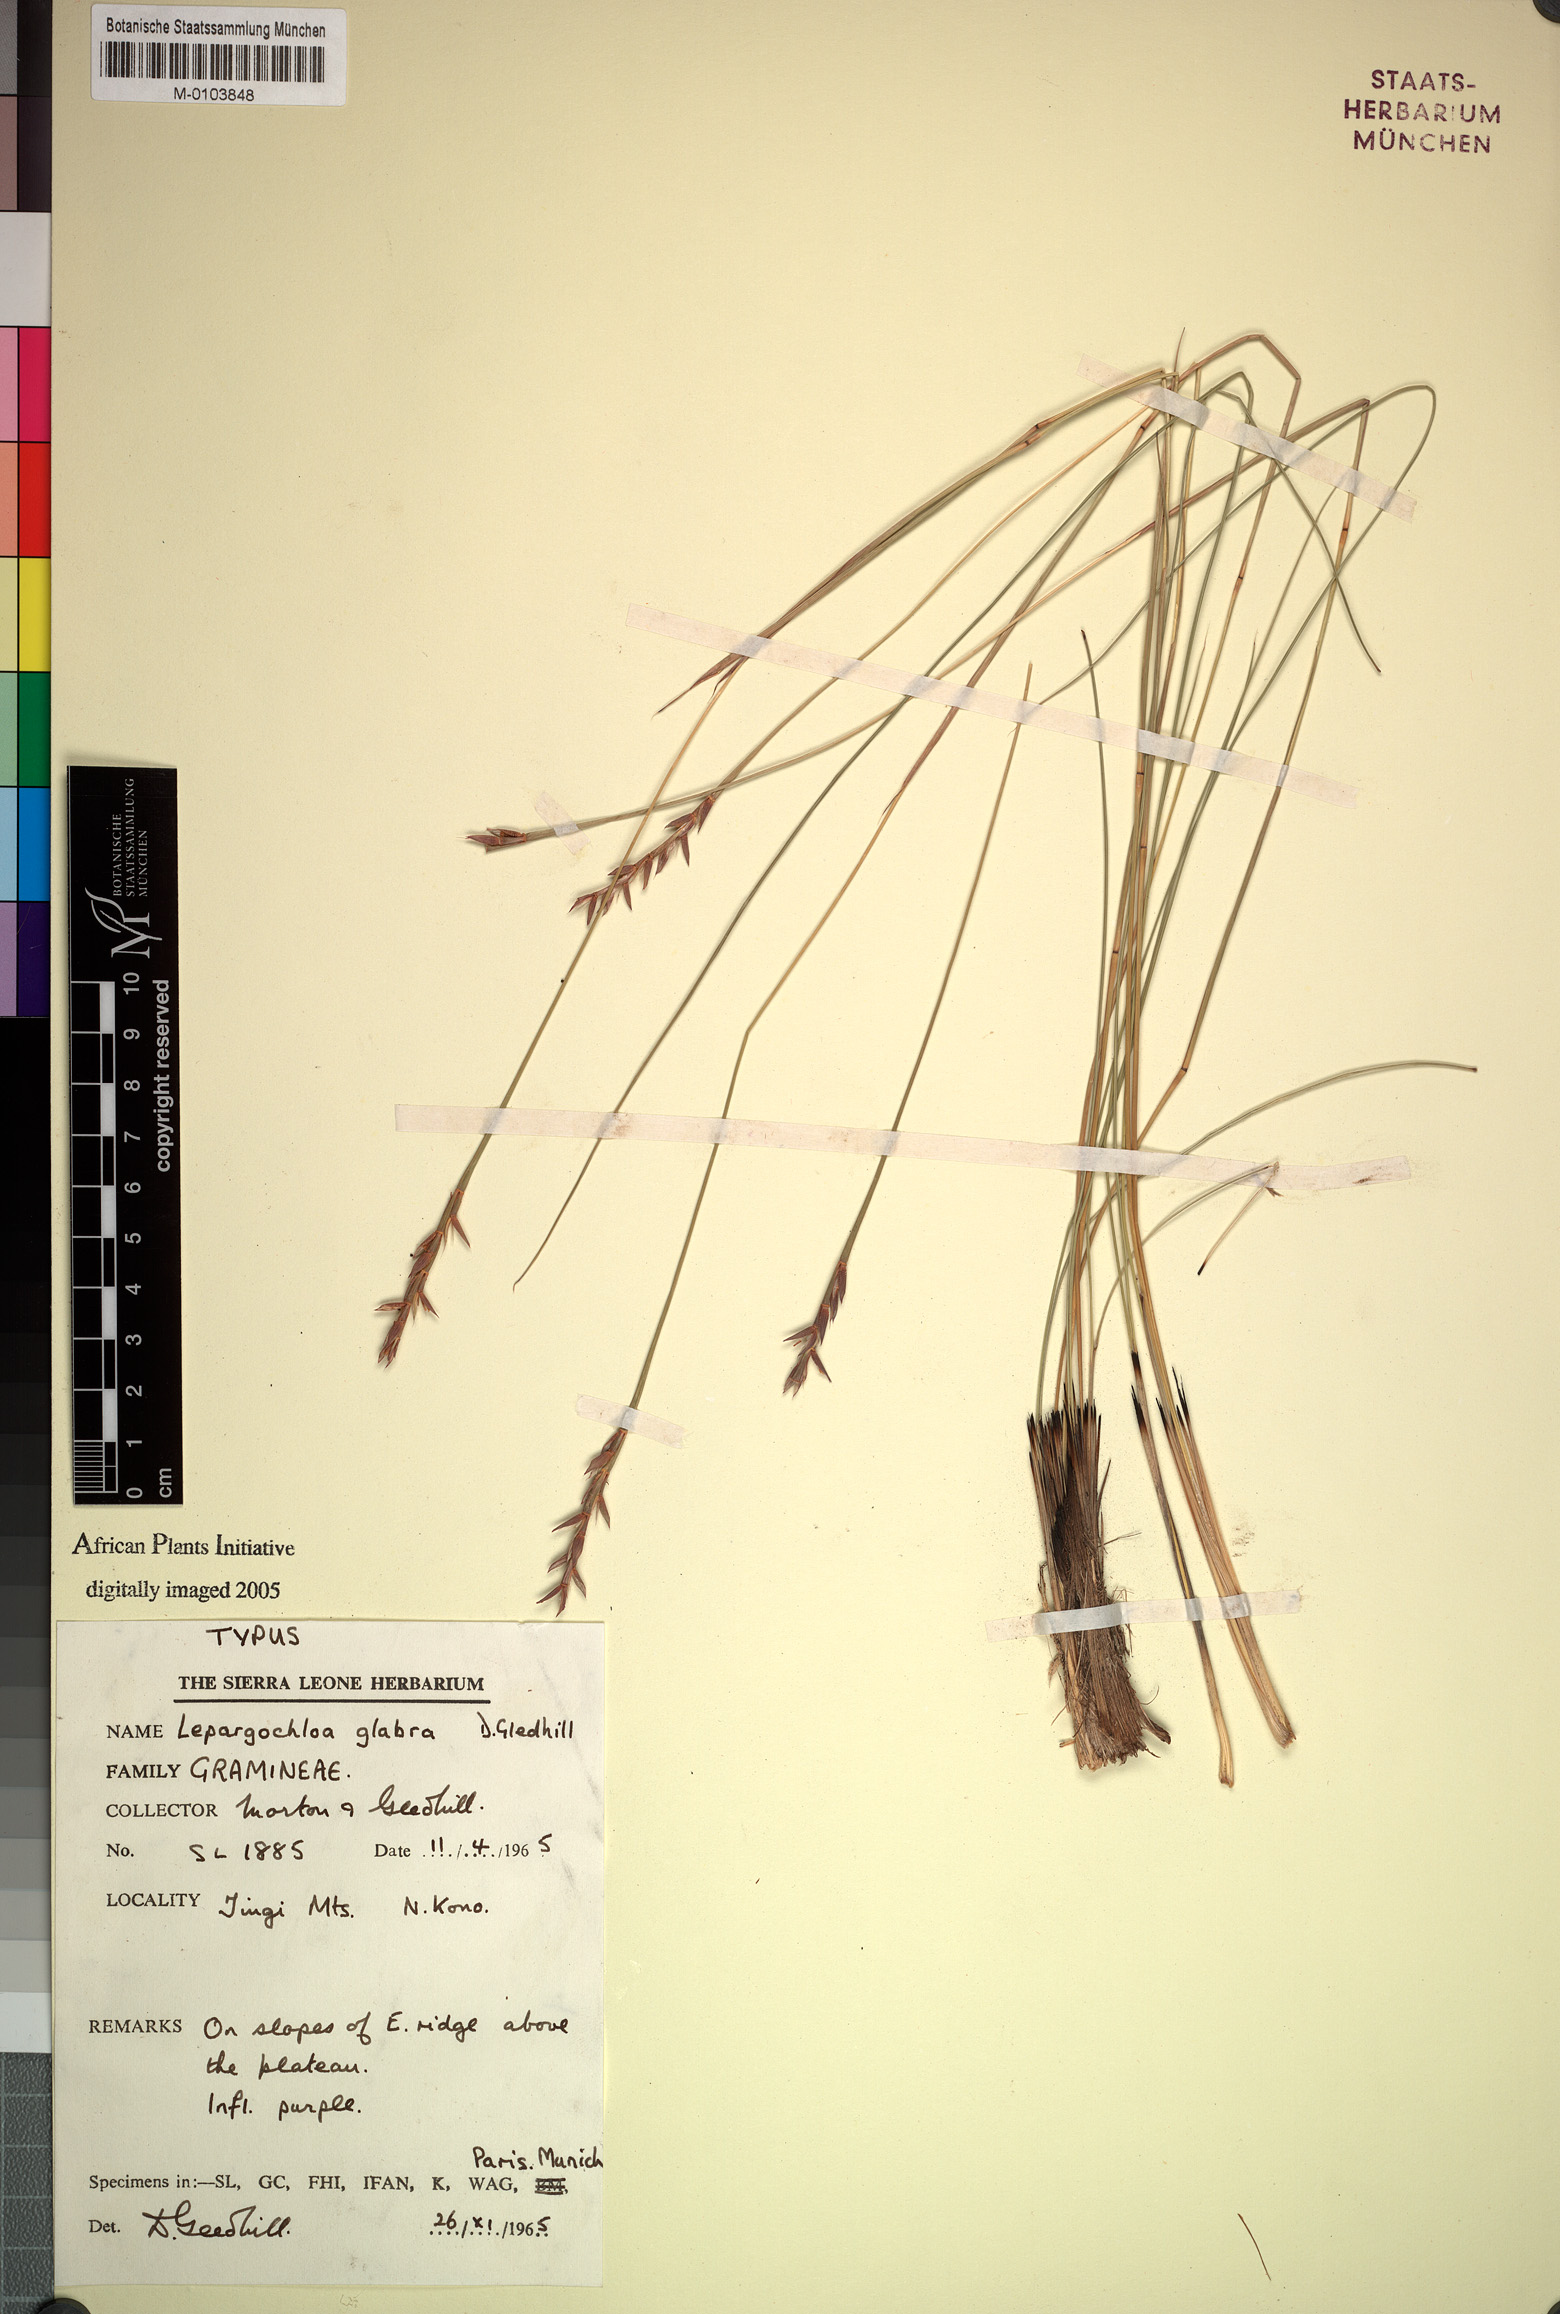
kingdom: Plantae
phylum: Tracheophyta
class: Liliopsida
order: Poales
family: Poaceae
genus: Rhytachne
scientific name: Rhytachne glabra
